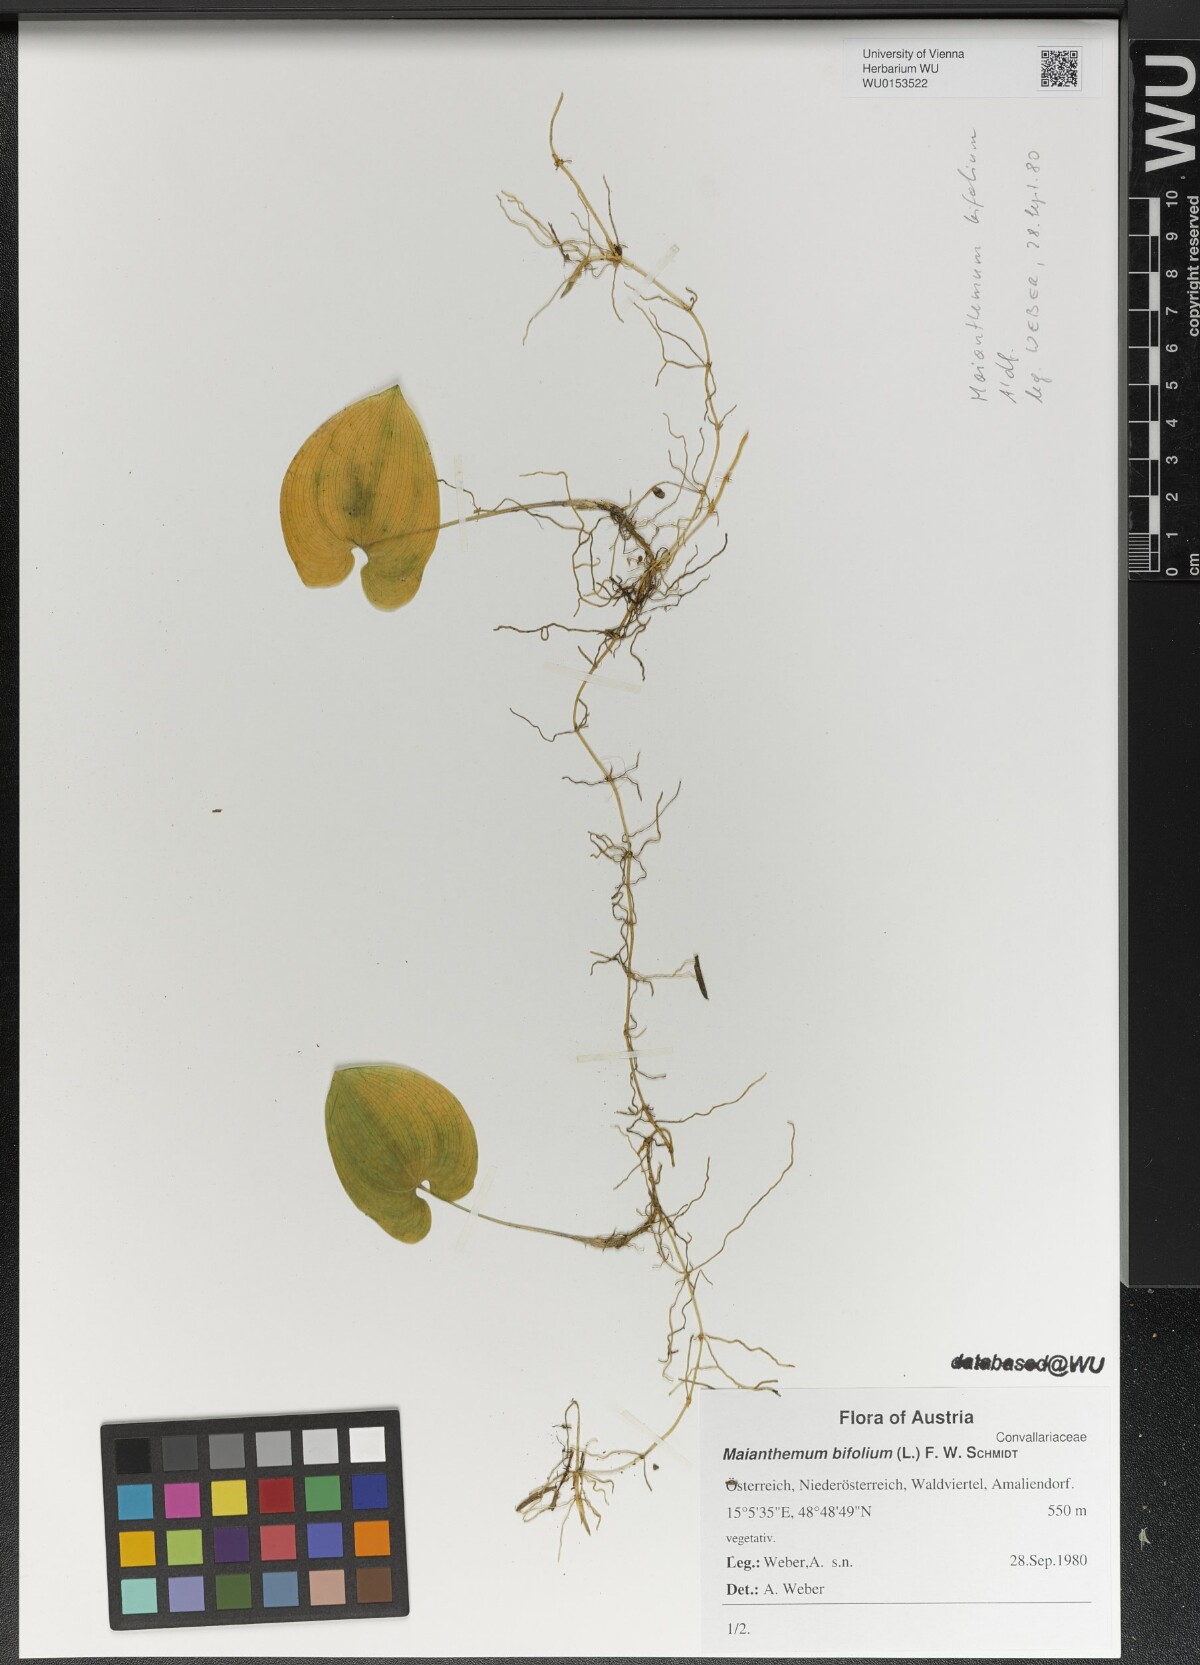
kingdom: Plantae
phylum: Tracheophyta
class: Liliopsida
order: Asparagales
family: Asparagaceae
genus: Maianthemum
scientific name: Maianthemum bifolium
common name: May lily
